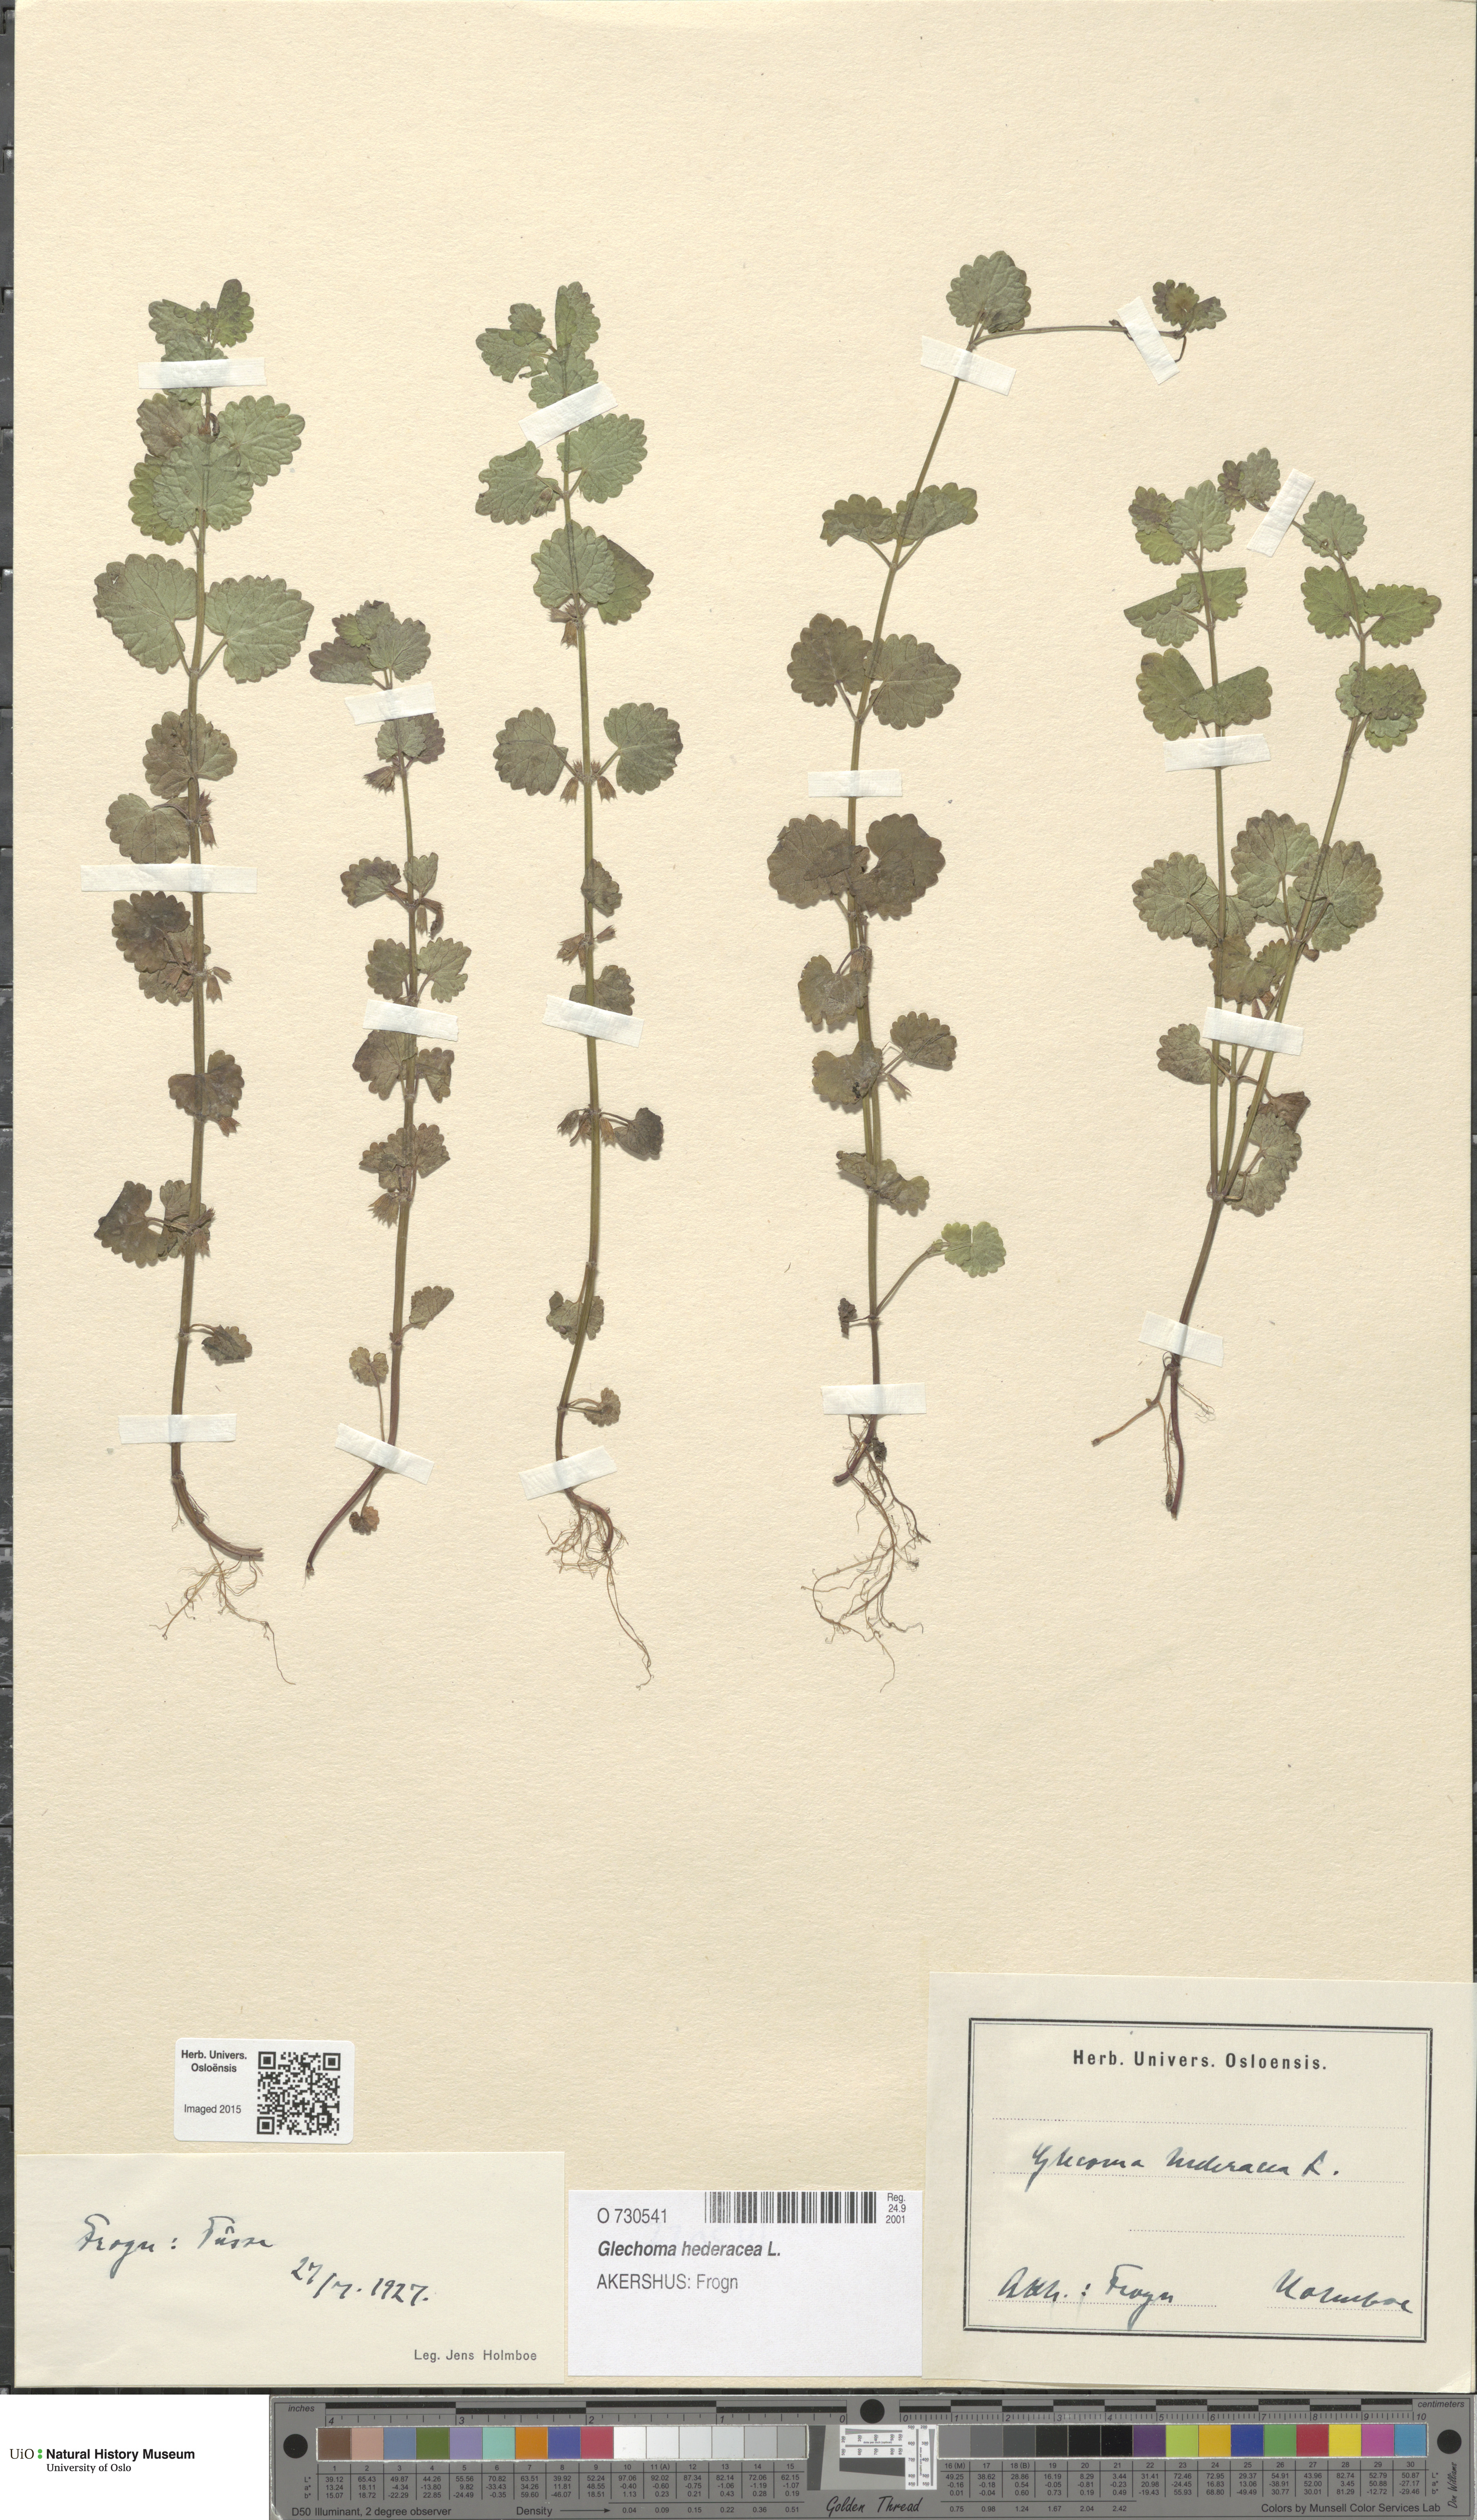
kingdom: Plantae
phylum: Tracheophyta
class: Magnoliopsida
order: Lamiales
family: Lamiaceae
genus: Glechoma
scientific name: Glechoma hederacea
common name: Ground ivy
